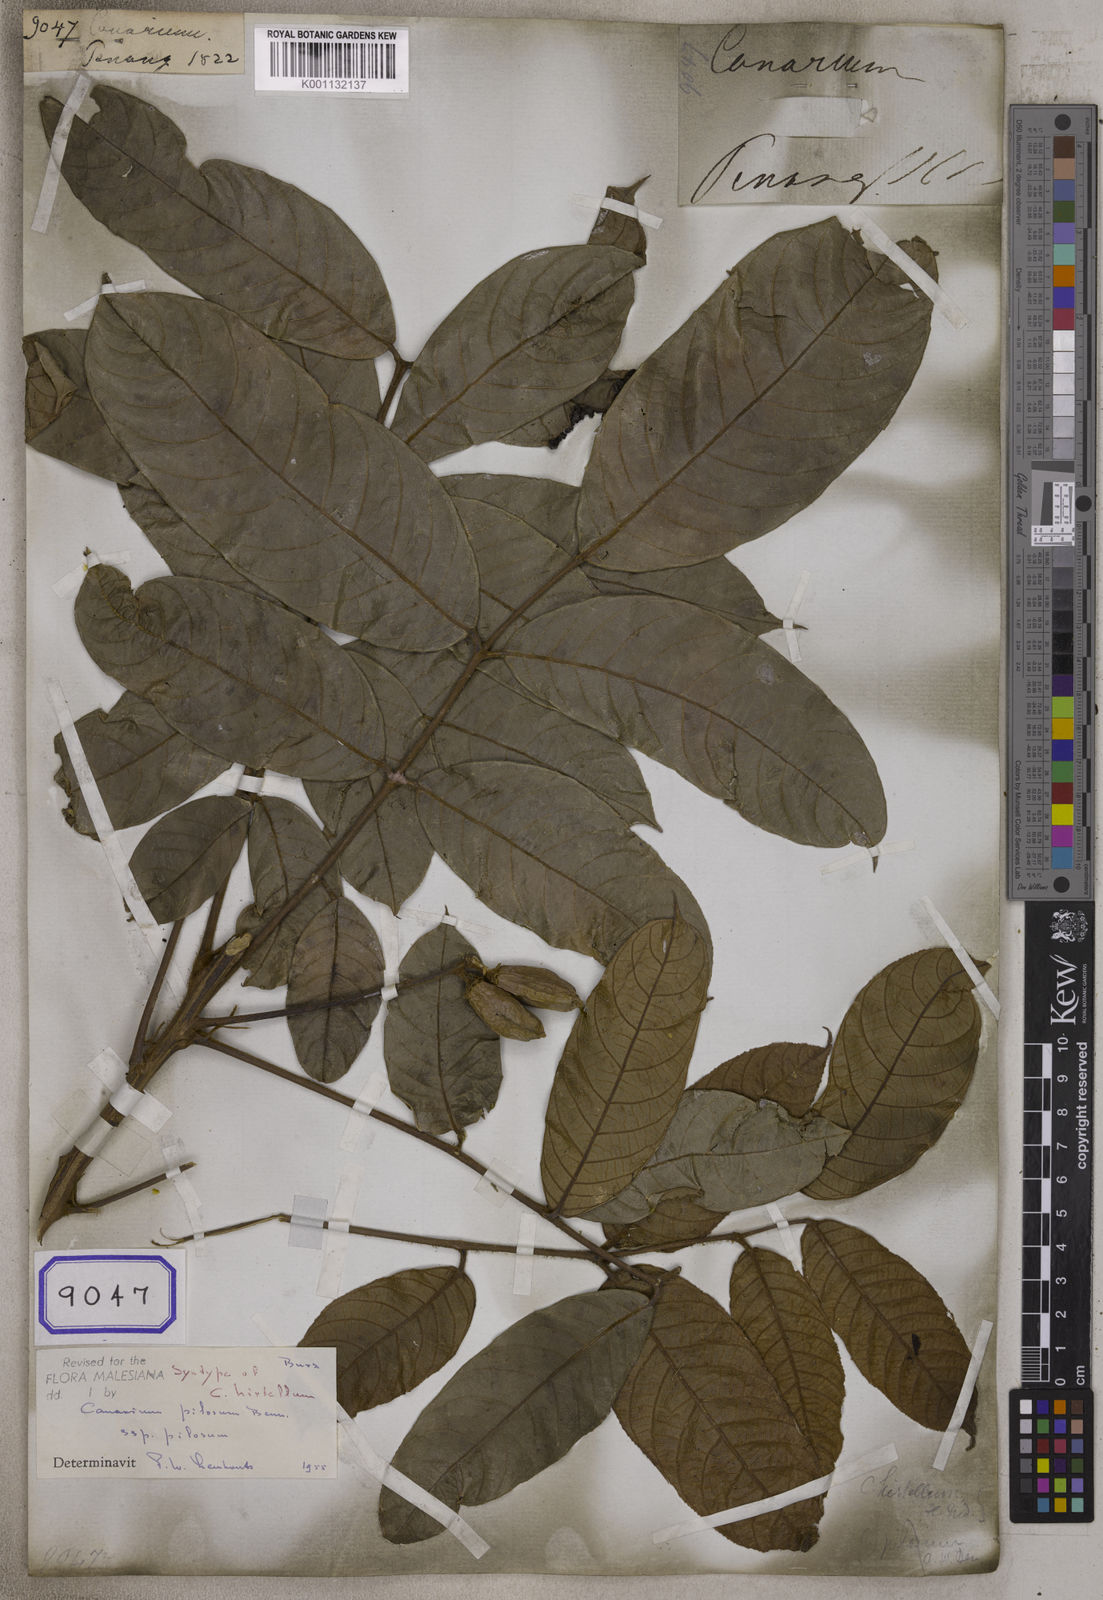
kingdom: Plantae
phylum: Tracheophyta
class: Magnoliopsida
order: Sapindales
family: Burseraceae
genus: Canarium
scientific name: Canarium
